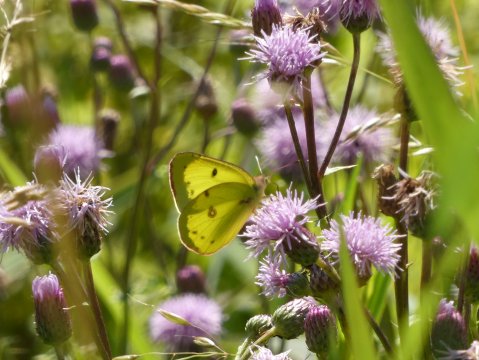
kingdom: Animalia
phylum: Arthropoda
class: Insecta
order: Lepidoptera
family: Pieridae
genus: Colias
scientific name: Colias philodice
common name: Clouded Sulphur
